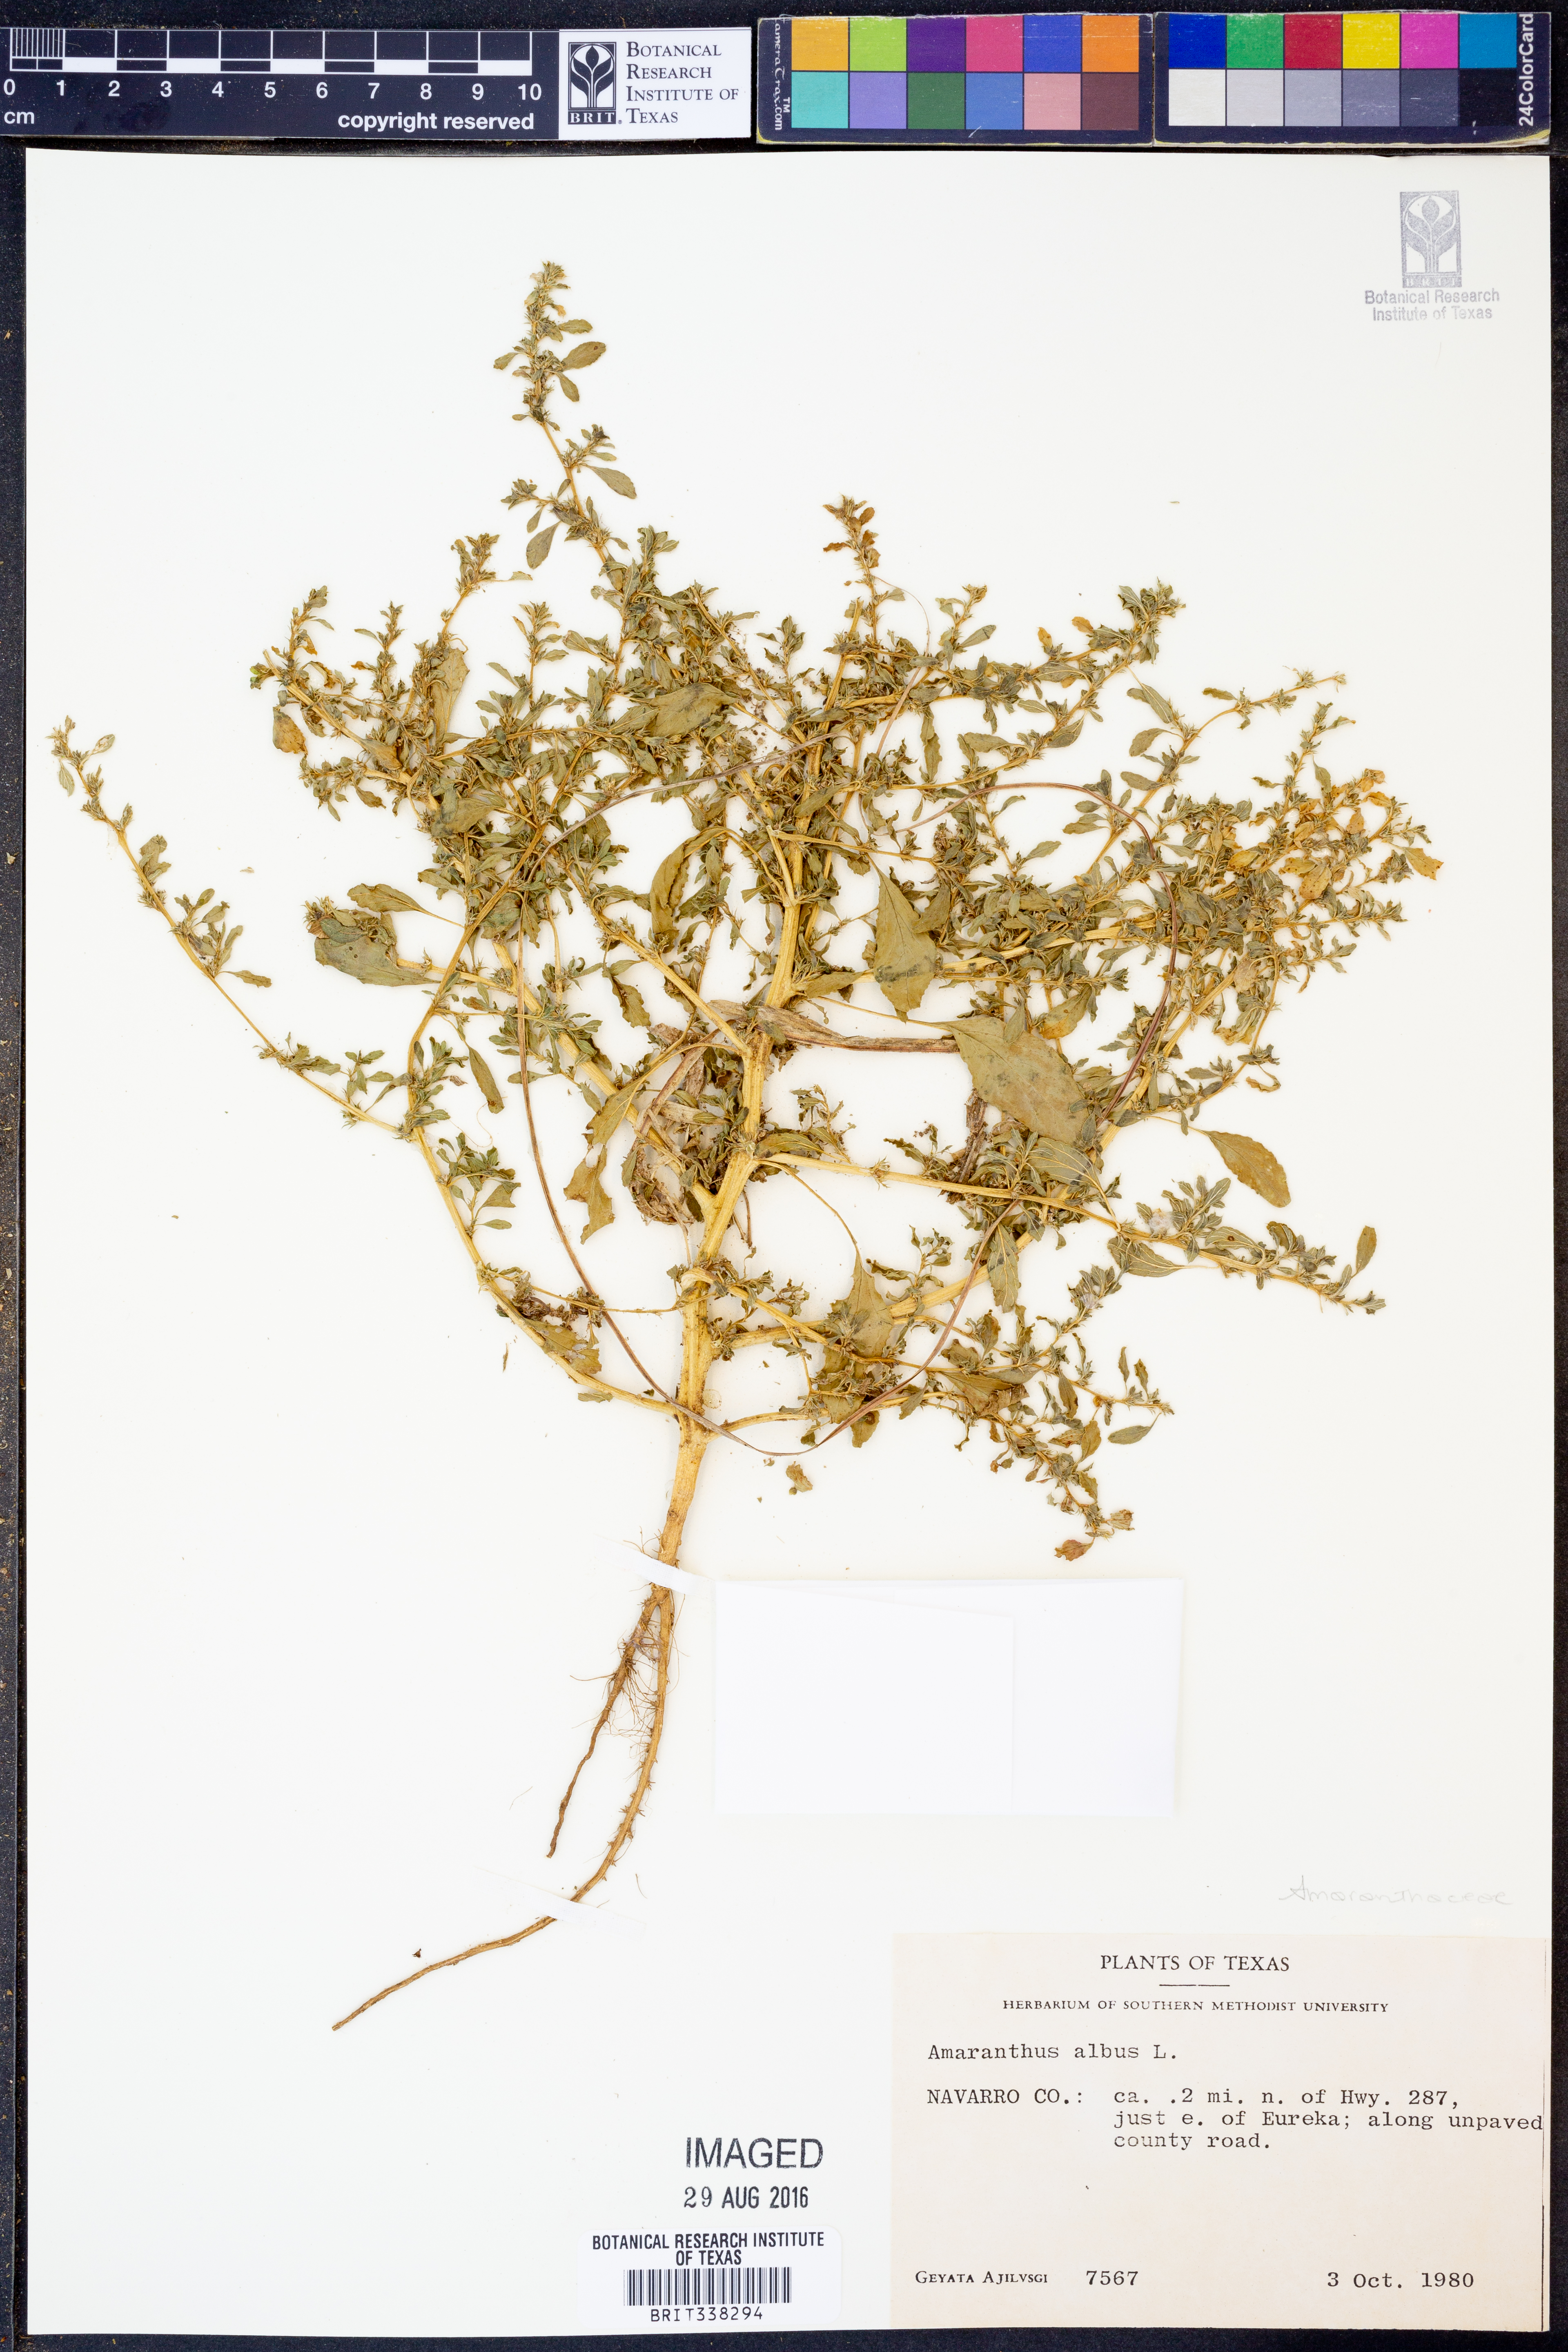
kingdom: Plantae
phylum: Tracheophyta
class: Magnoliopsida
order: Caryophyllales
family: Amaranthaceae
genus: Amaranthus
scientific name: Amaranthus albus
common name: White pigweed
